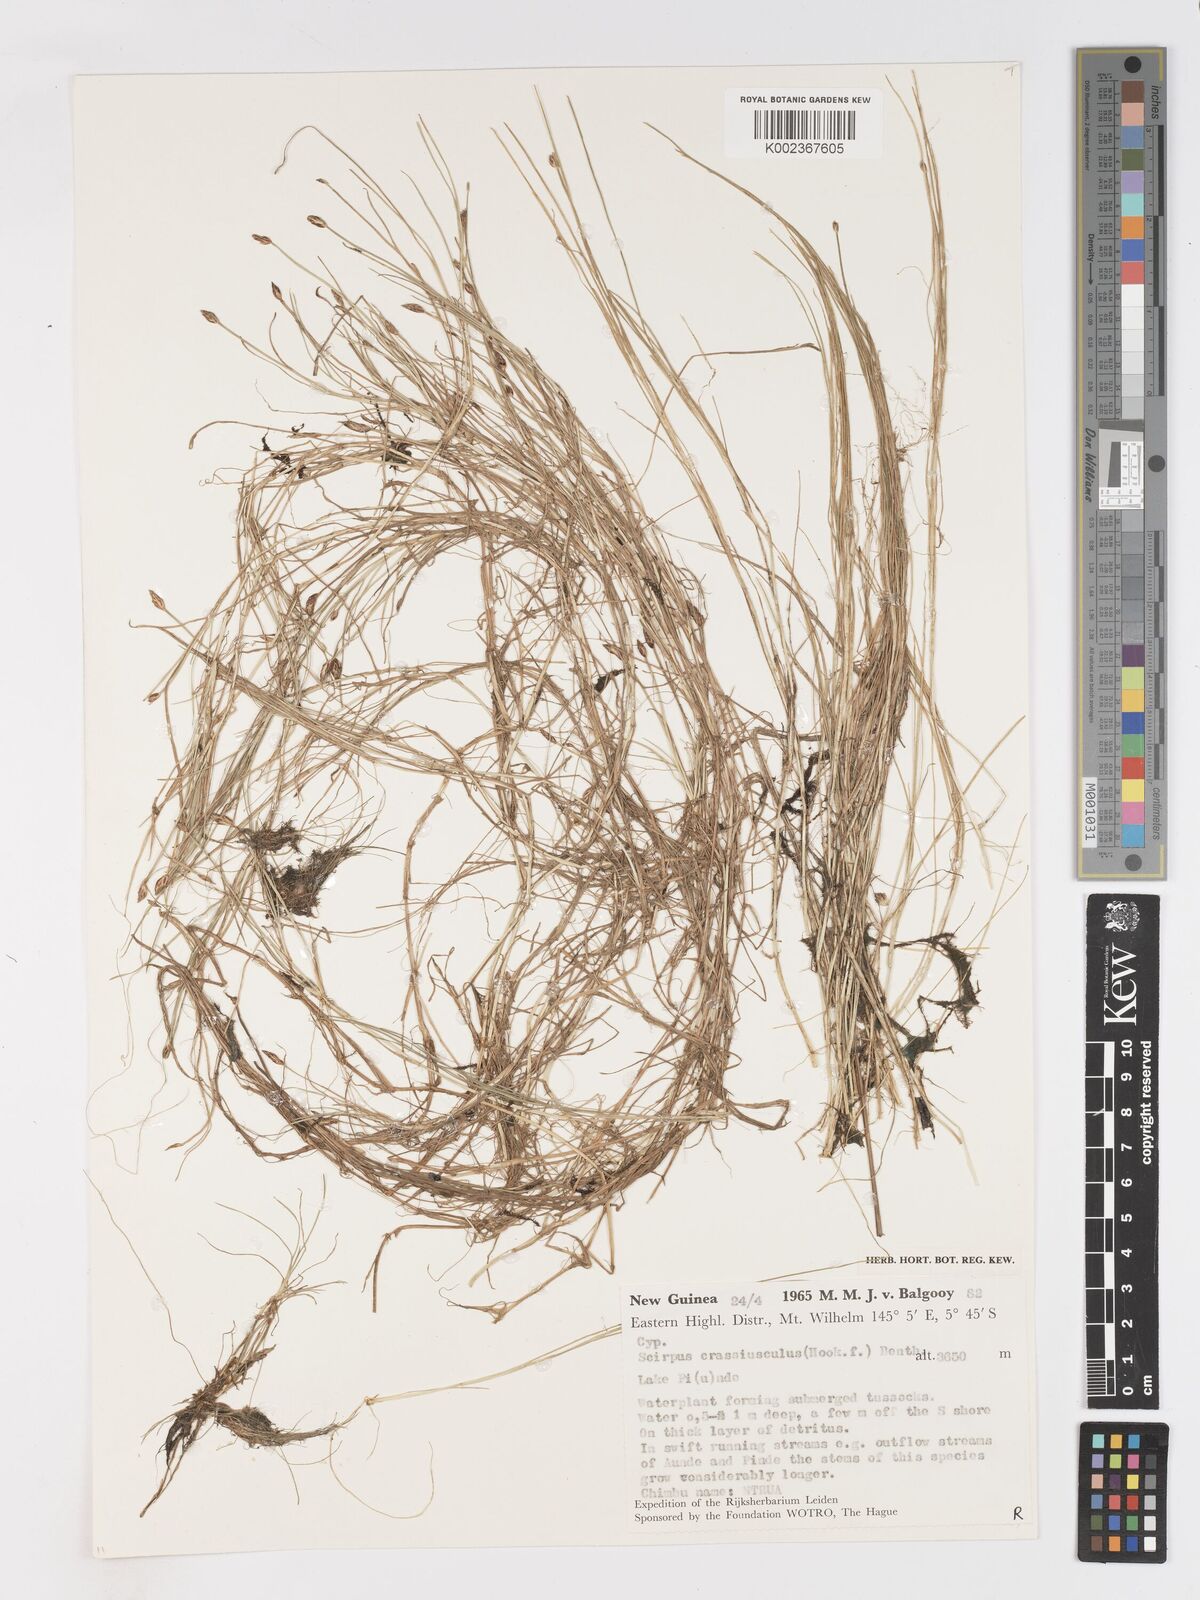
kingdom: Plantae
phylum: Tracheophyta
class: Liliopsida
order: Poales
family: Cyperaceae
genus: Isolepis
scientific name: Isolepis crassiuscula
